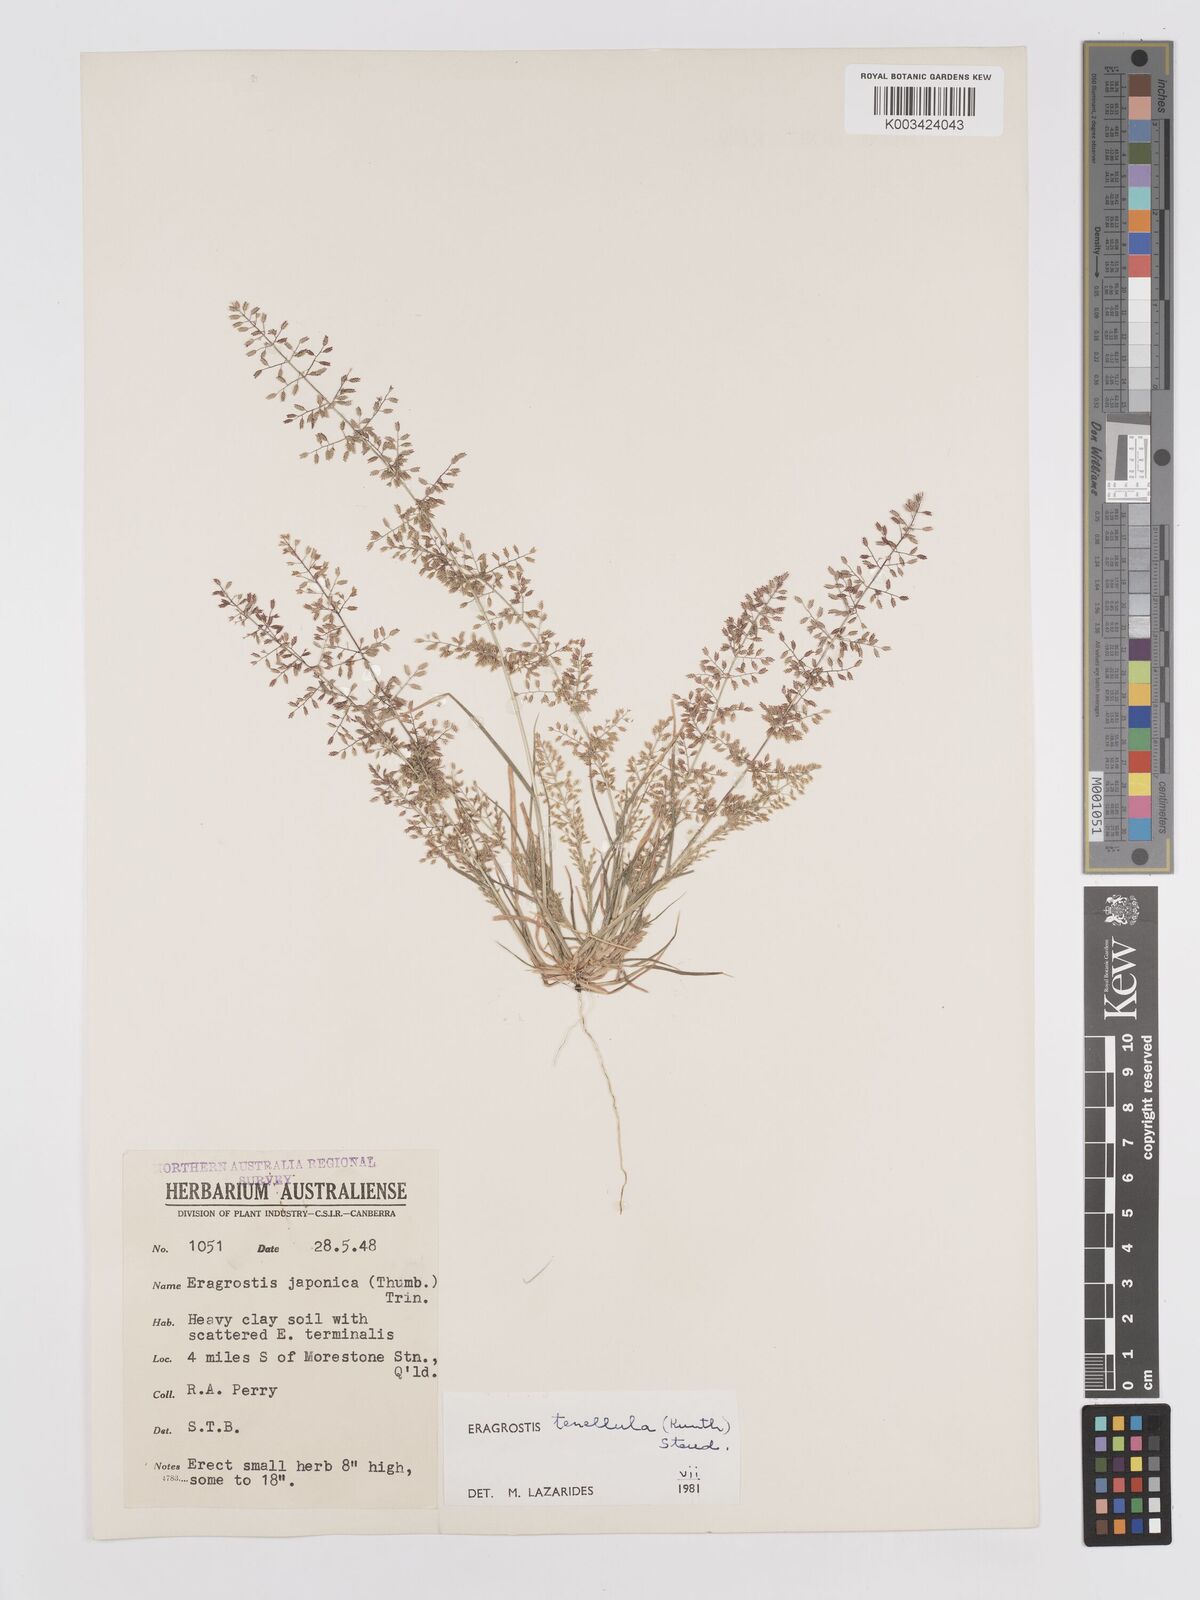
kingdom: Plantae
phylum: Tracheophyta
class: Liliopsida
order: Poales
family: Poaceae
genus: Eragrostis
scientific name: Eragrostis tenellula
